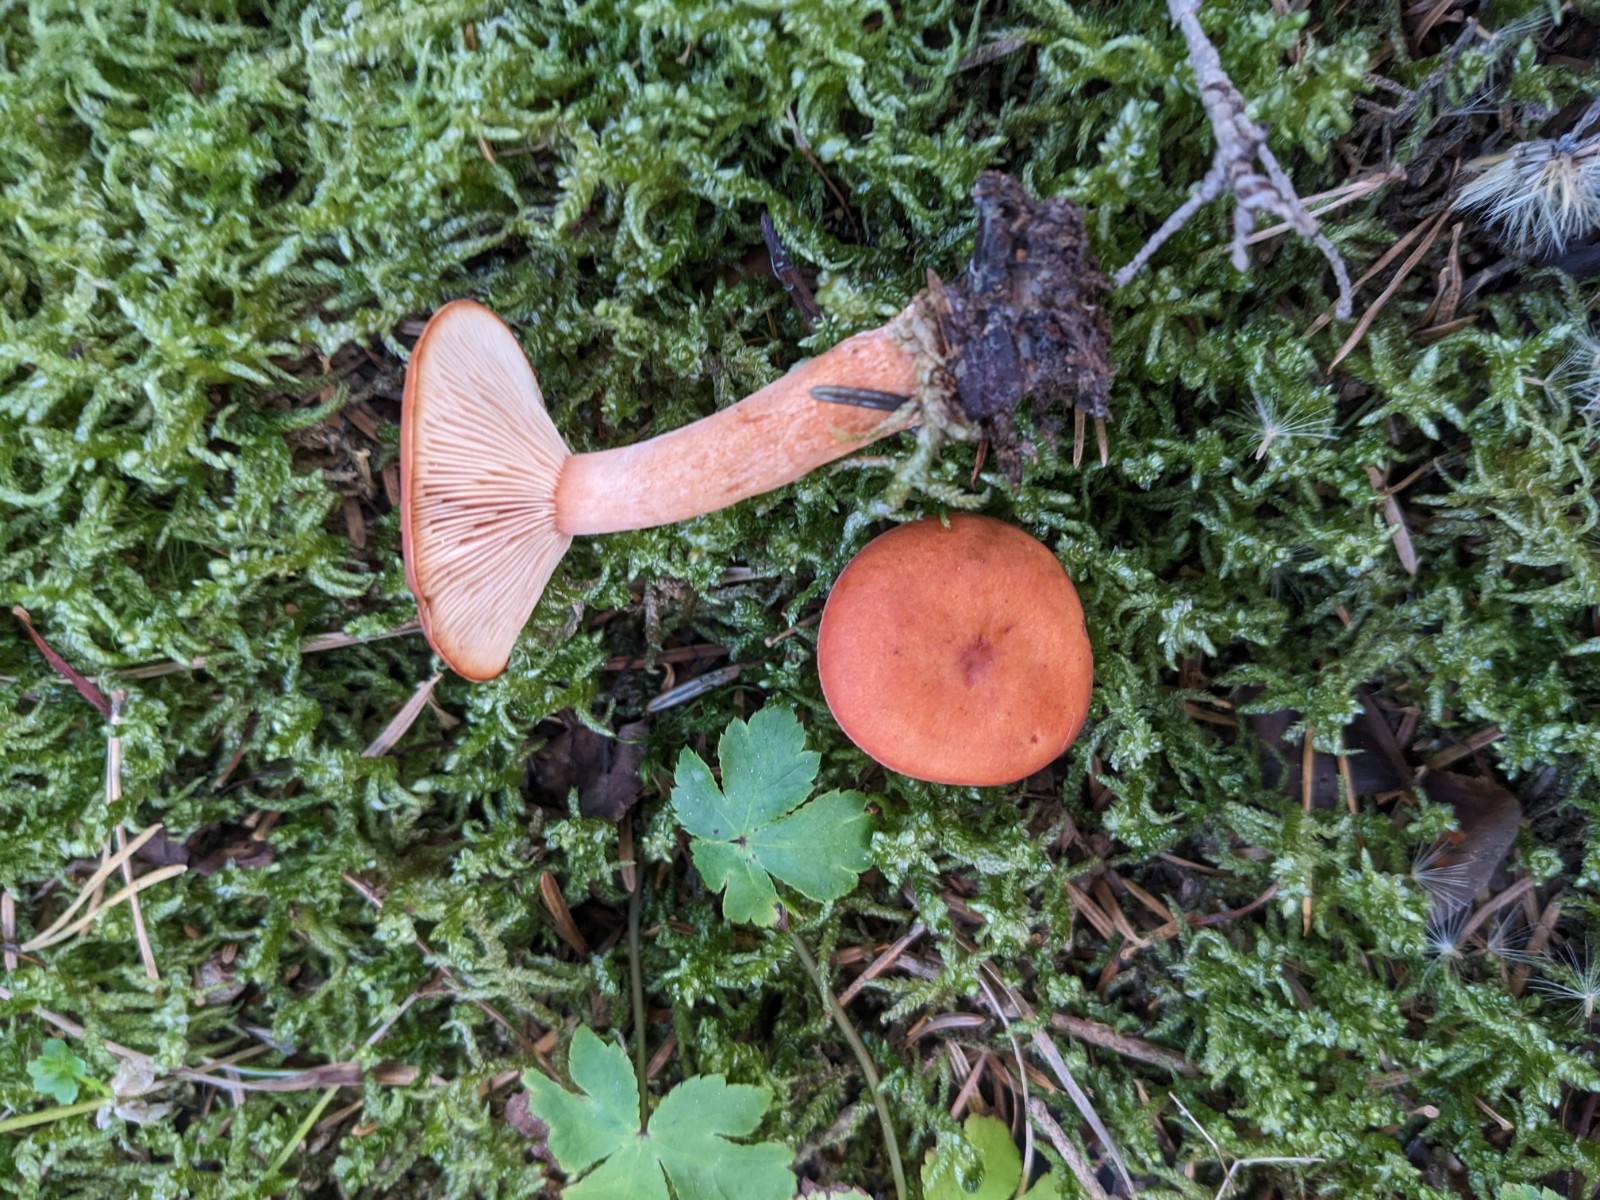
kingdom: Fungi
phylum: Basidiomycota
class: Agaricomycetes
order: Russulales
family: Russulaceae
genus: Lactarius
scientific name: Lactarius aurantiacus
